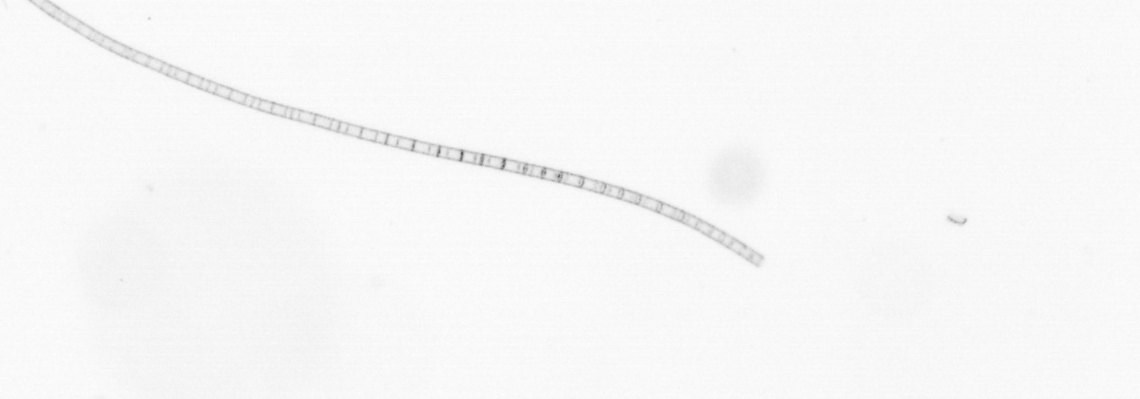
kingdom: Chromista
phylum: Ochrophyta
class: Bacillariophyceae
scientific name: Bacillariophyceae
